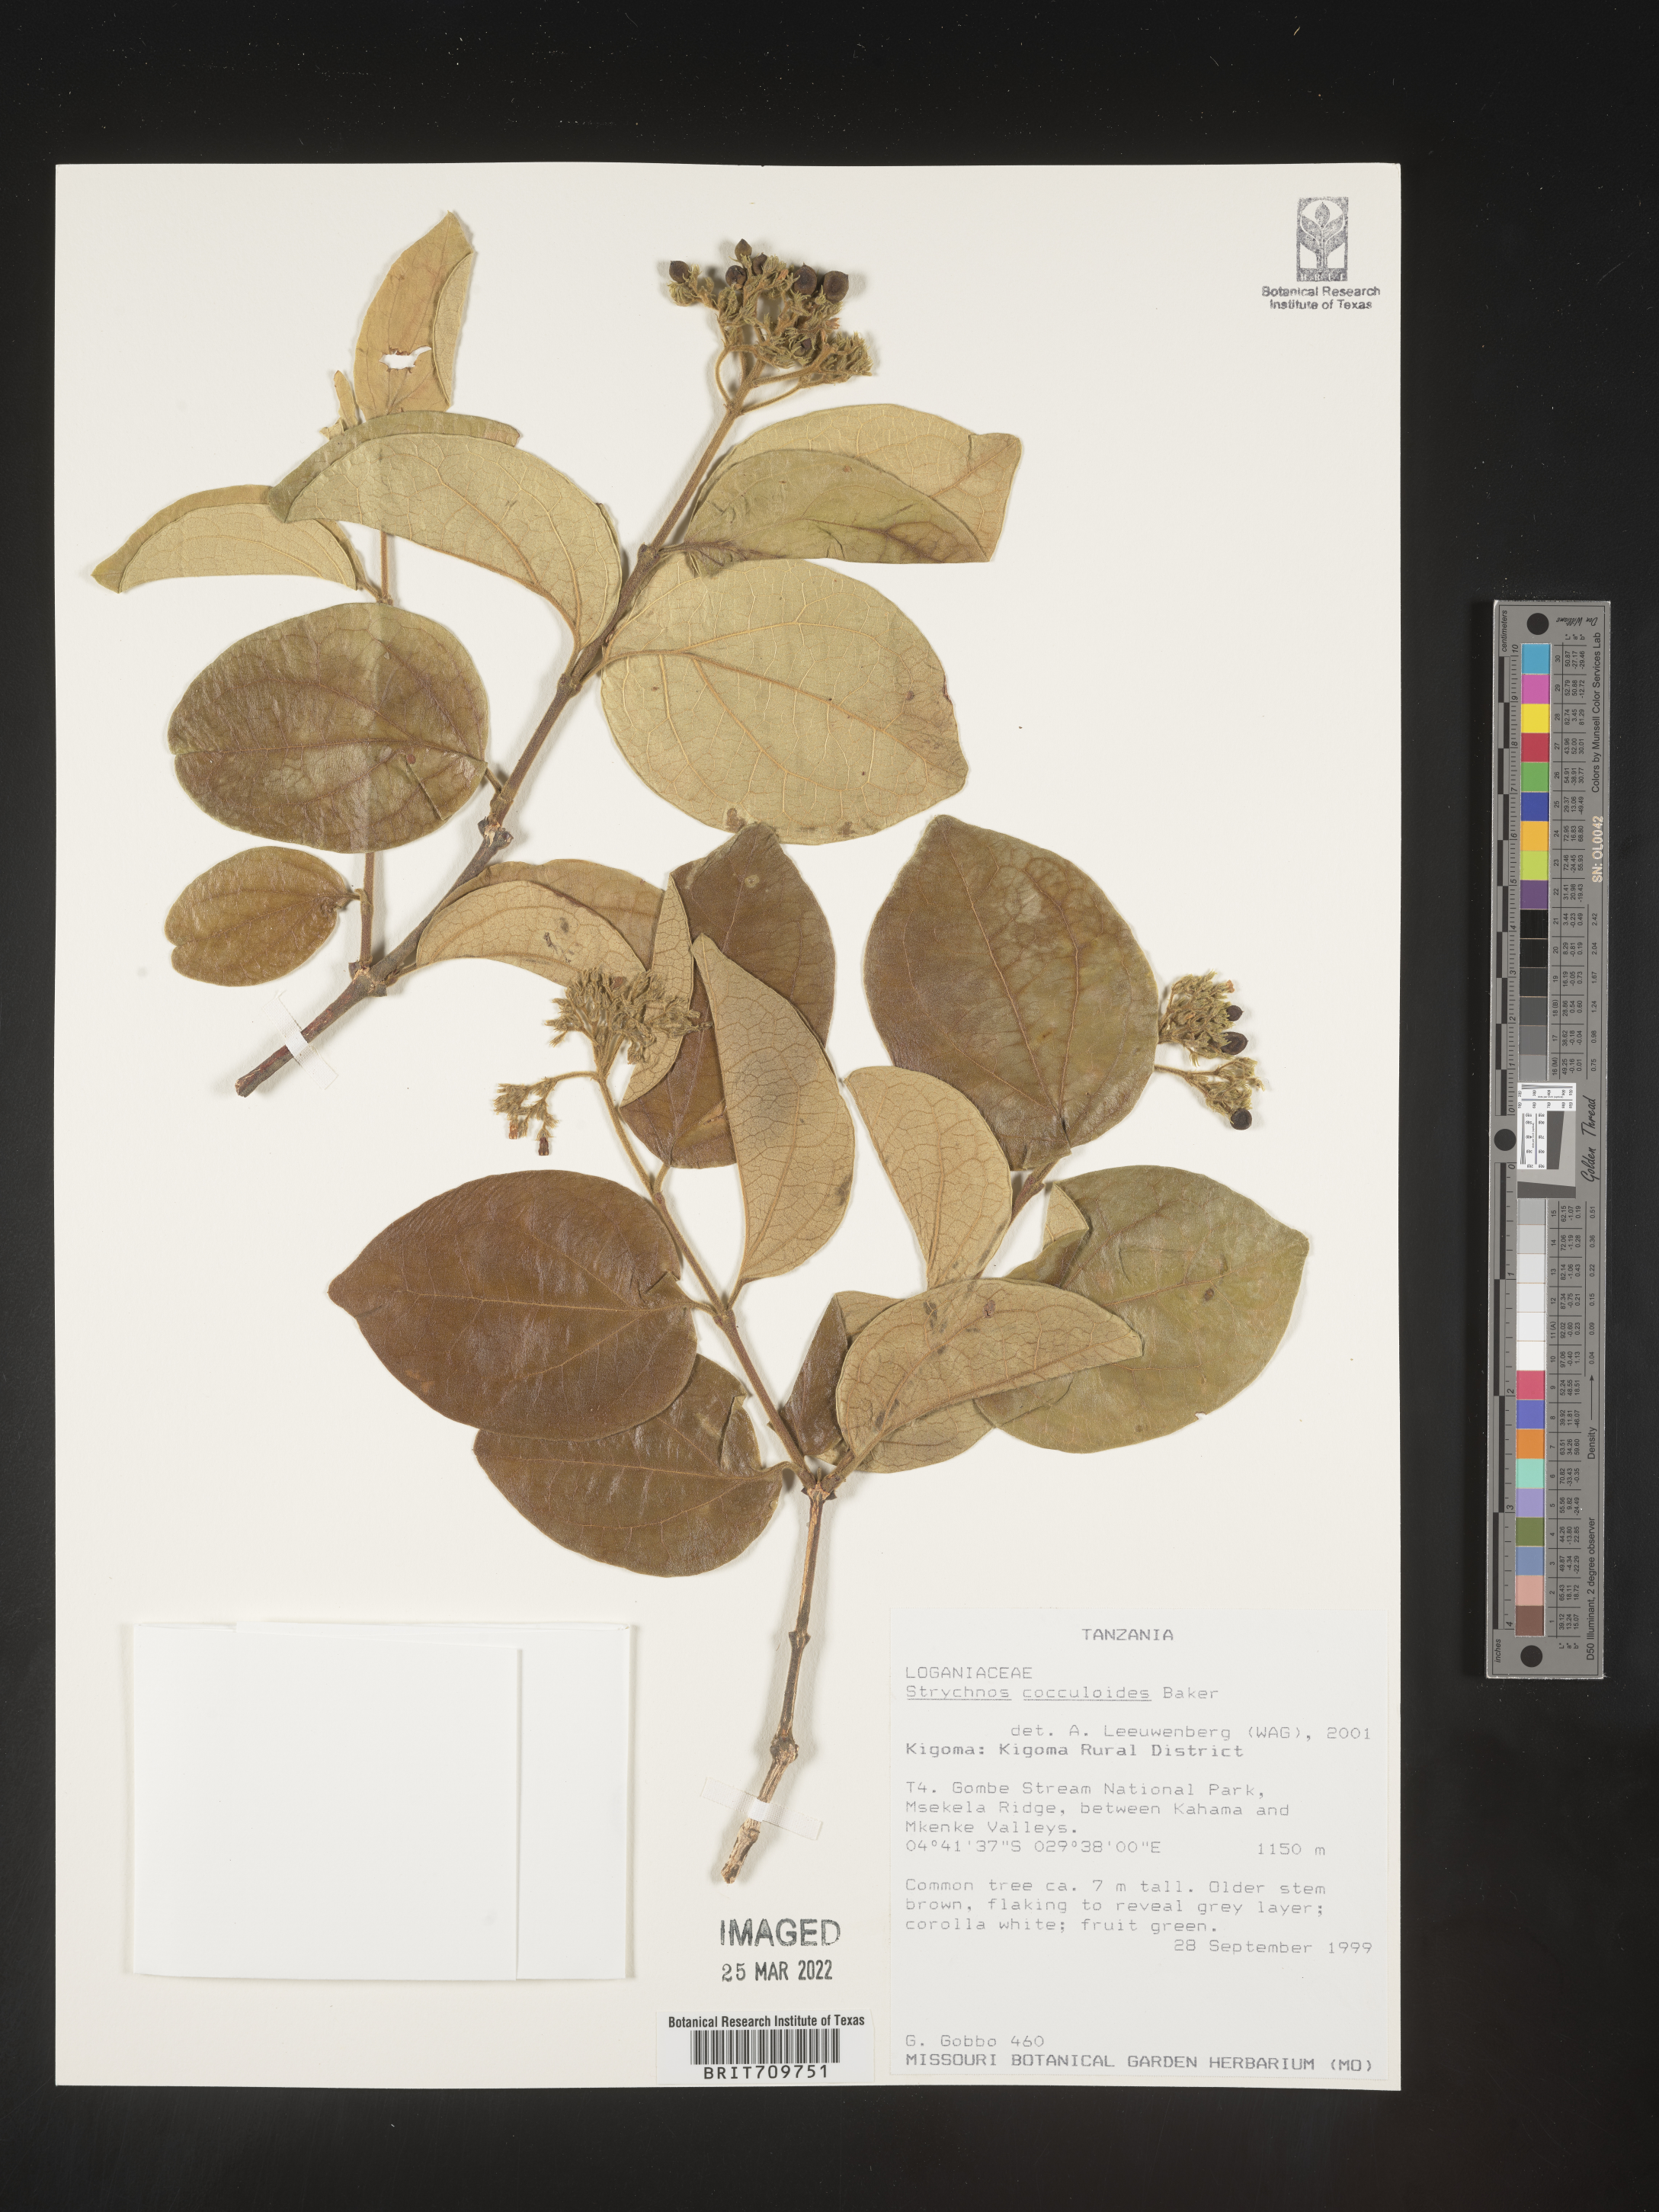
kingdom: Plantae
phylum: Tracheophyta
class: Magnoliopsida
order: Gentianales
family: Loganiaceae
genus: Strychnos
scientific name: Strychnos
